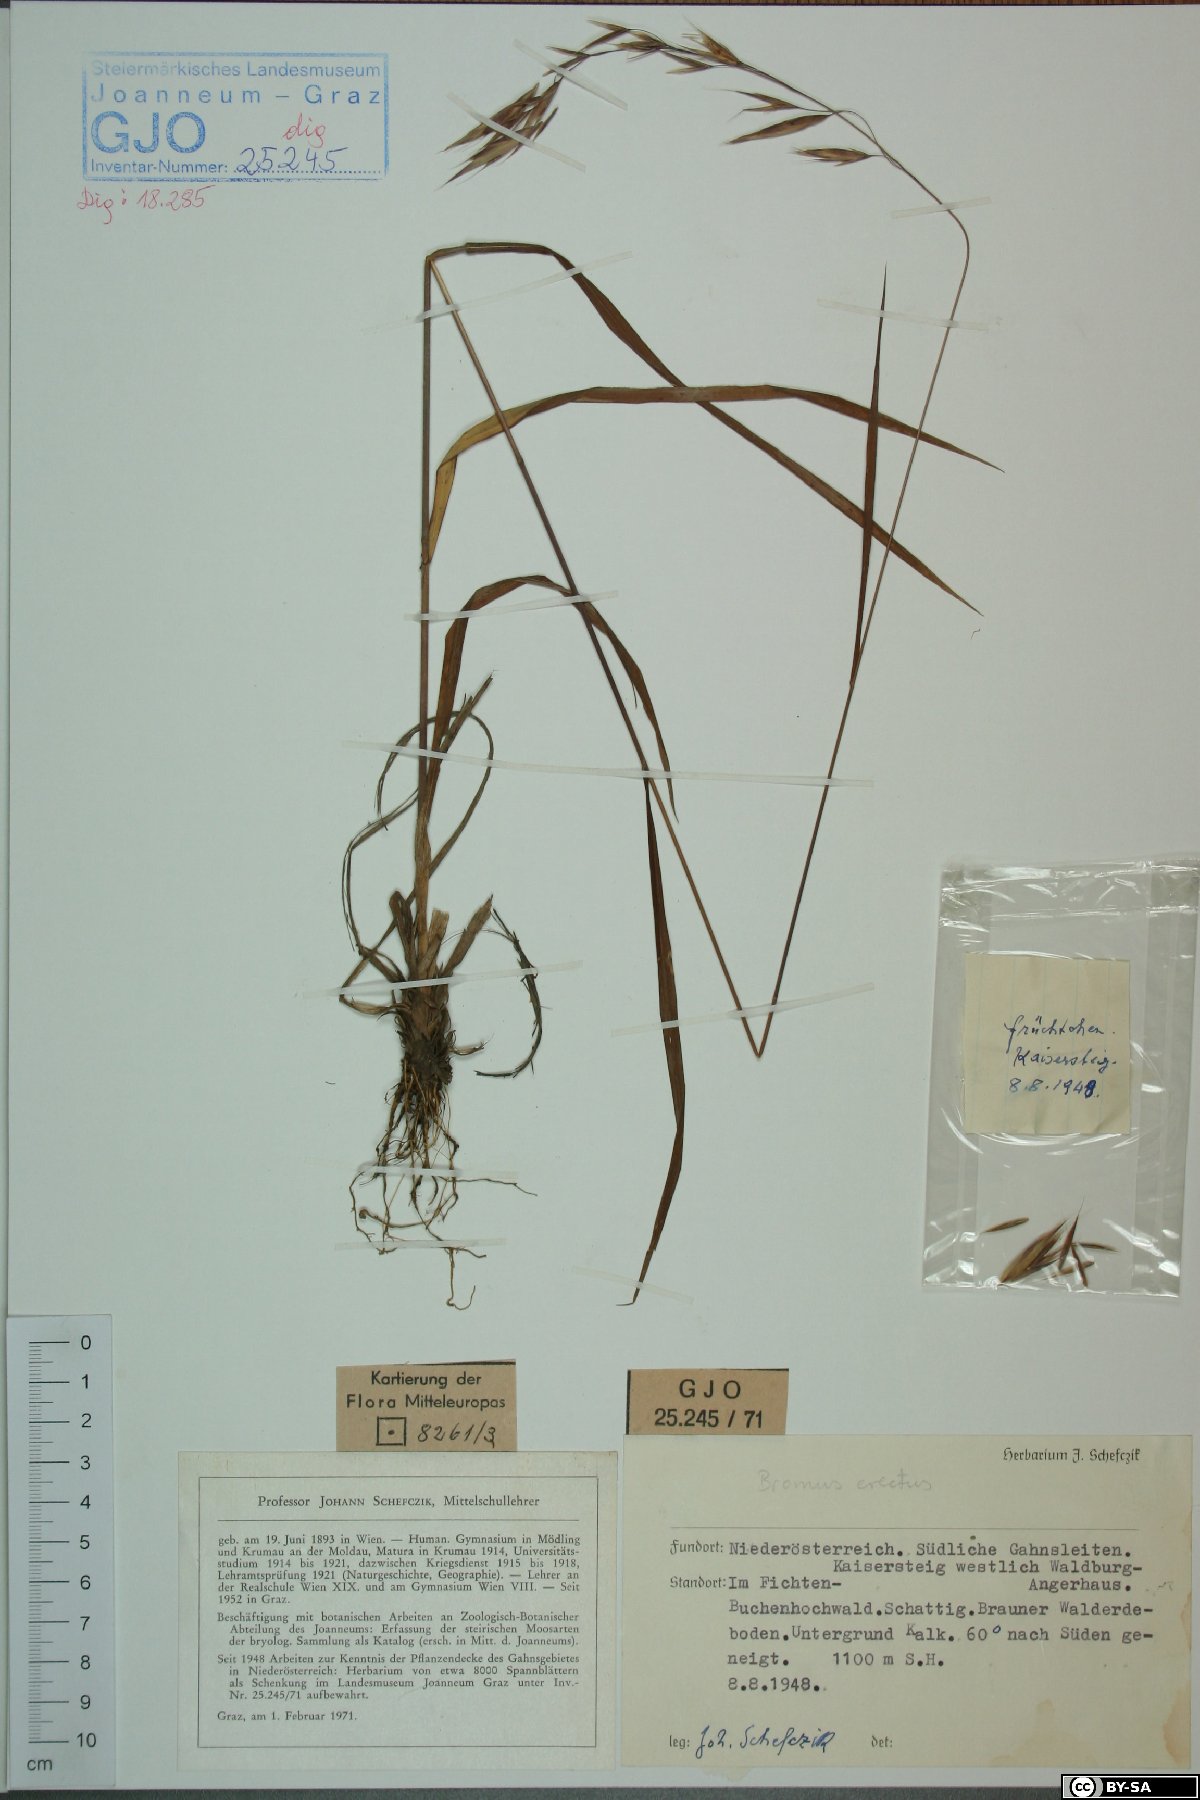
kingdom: Plantae
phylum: Tracheophyta
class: Liliopsida
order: Poales
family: Poaceae
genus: Bromus
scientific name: Bromus erectus
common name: Erect brome
